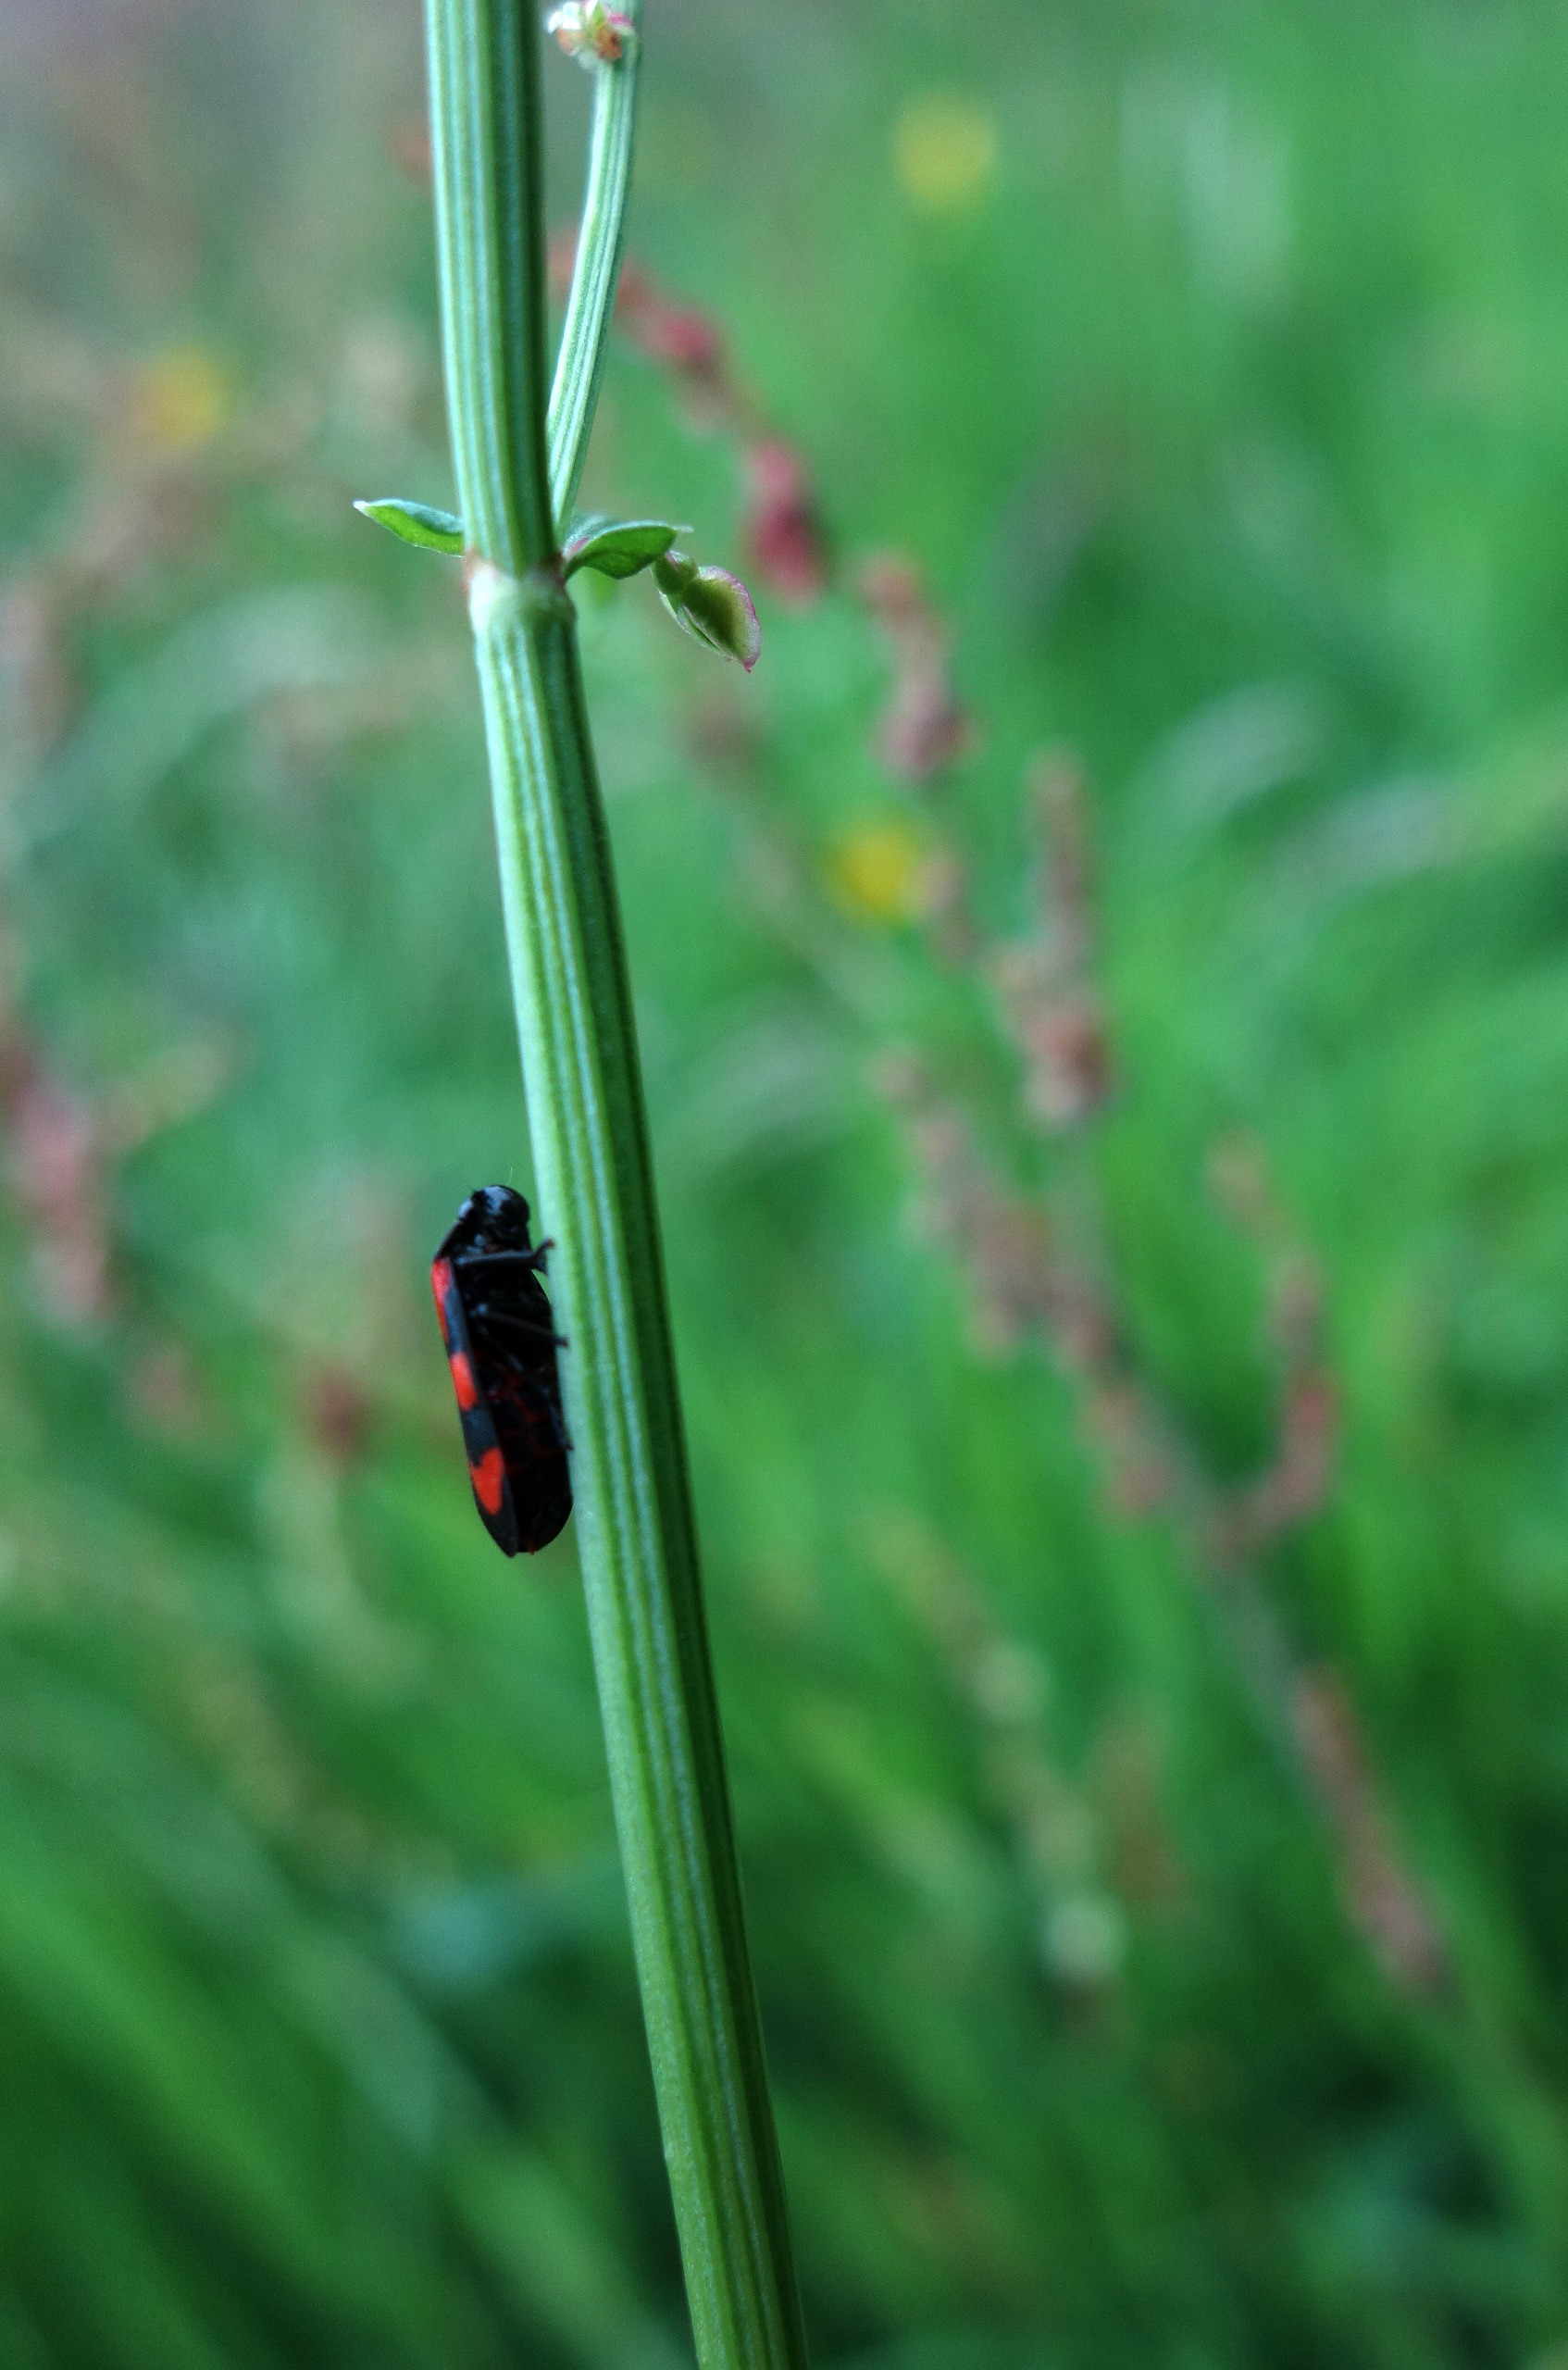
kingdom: Animalia
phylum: Arthropoda
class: Insecta
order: Hemiptera
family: Cercopidae
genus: Cercopis
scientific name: Cercopis vulnerata
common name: Blodcikade
